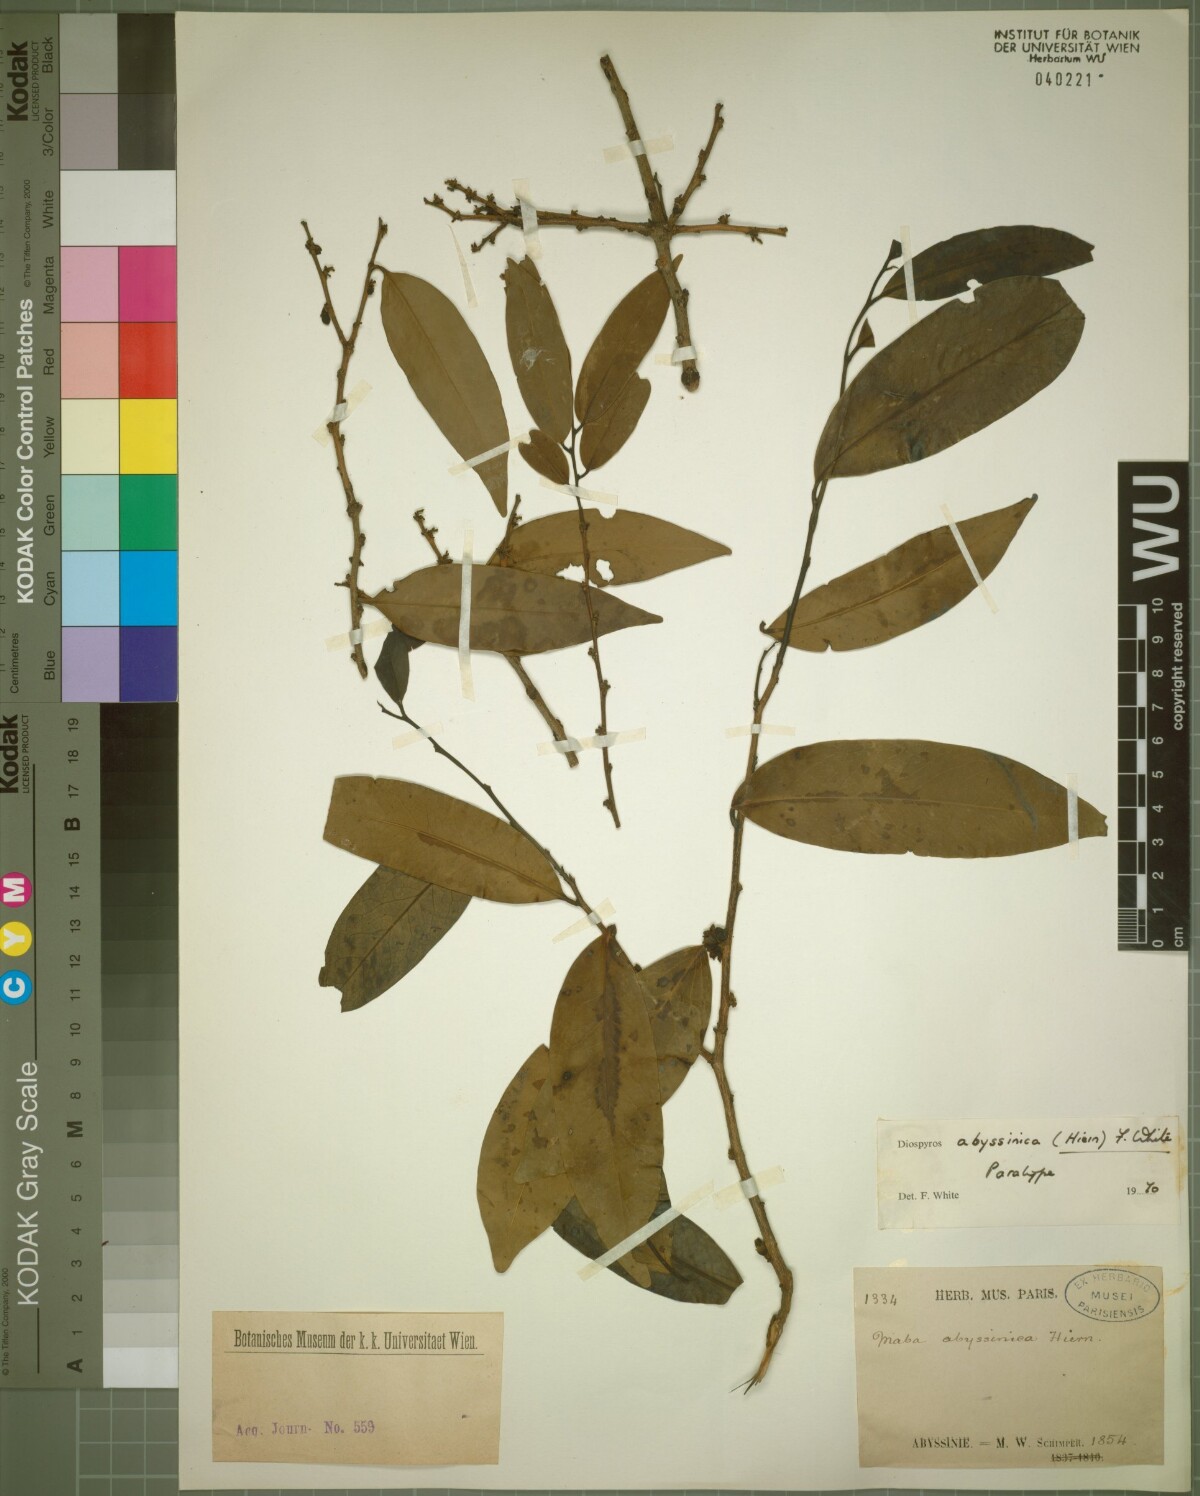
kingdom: Plantae
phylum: Tracheophyta
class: Magnoliopsida
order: Ericales
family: Ebenaceae
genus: Diospyros
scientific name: Diospyros abyssinica
